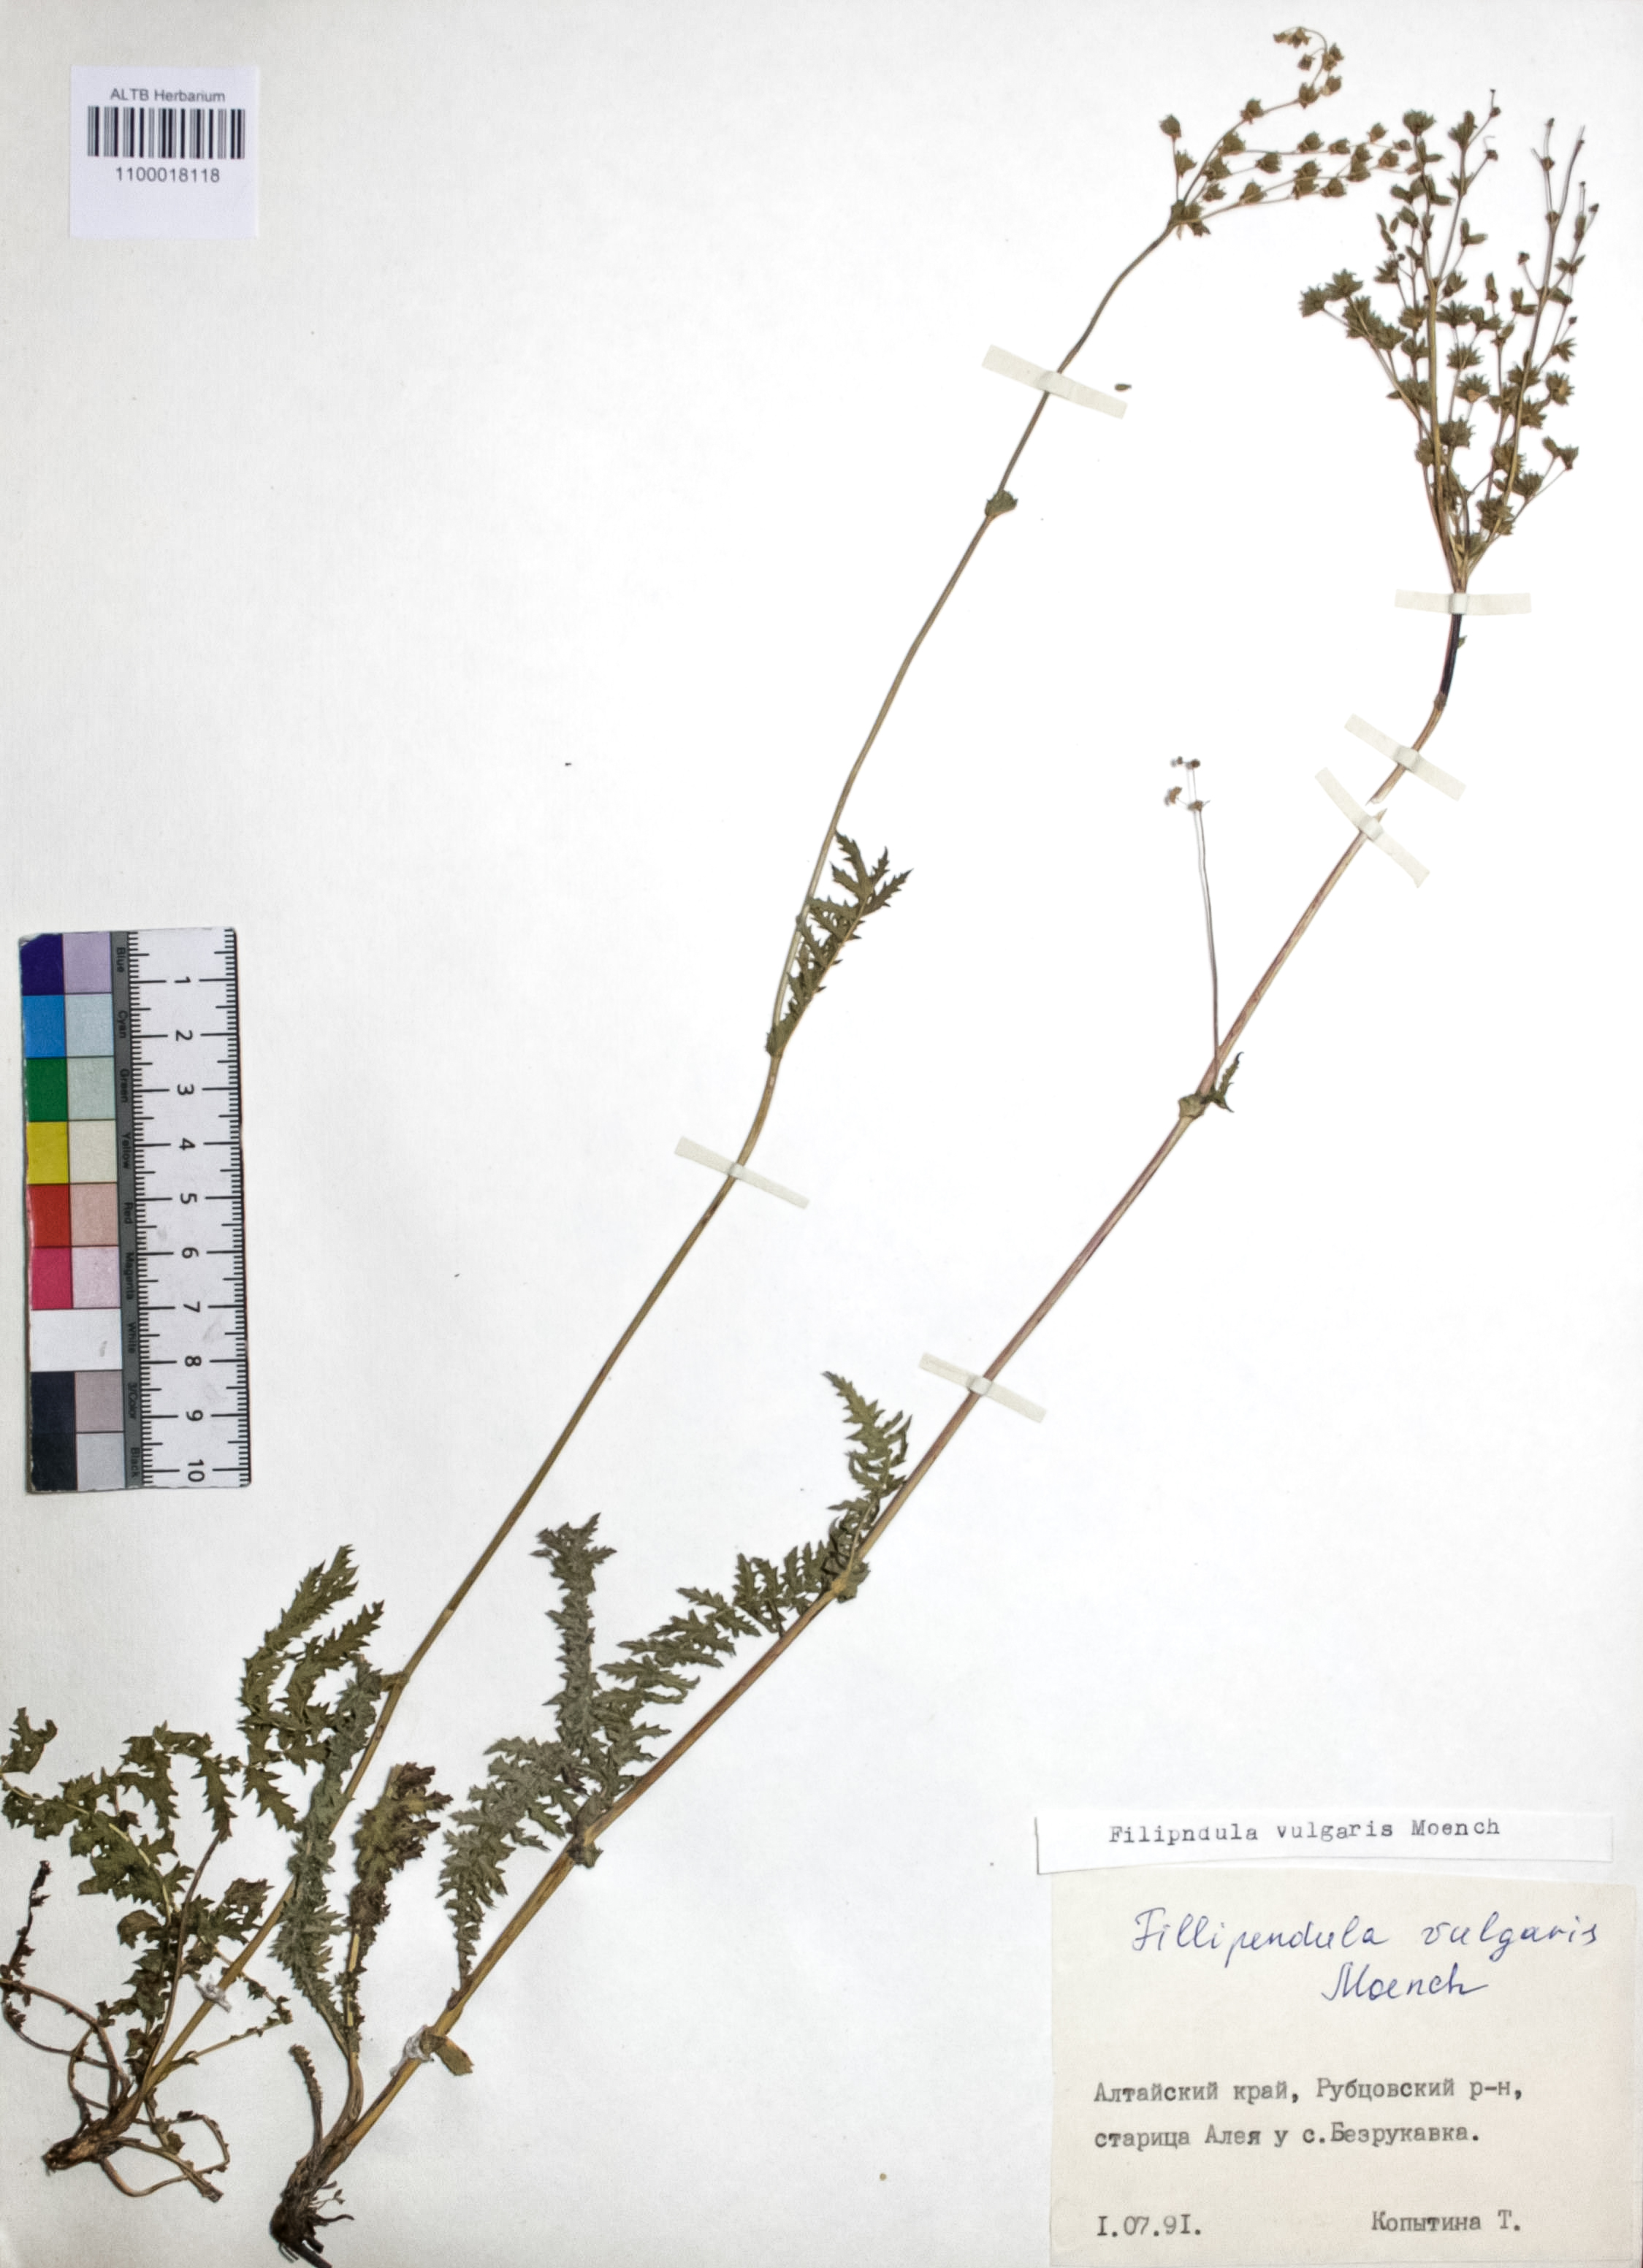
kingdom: Plantae
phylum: Tracheophyta
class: Magnoliopsida
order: Rosales
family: Rosaceae
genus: Filipendula
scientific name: Filipendula vulgaris
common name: Dropwort
